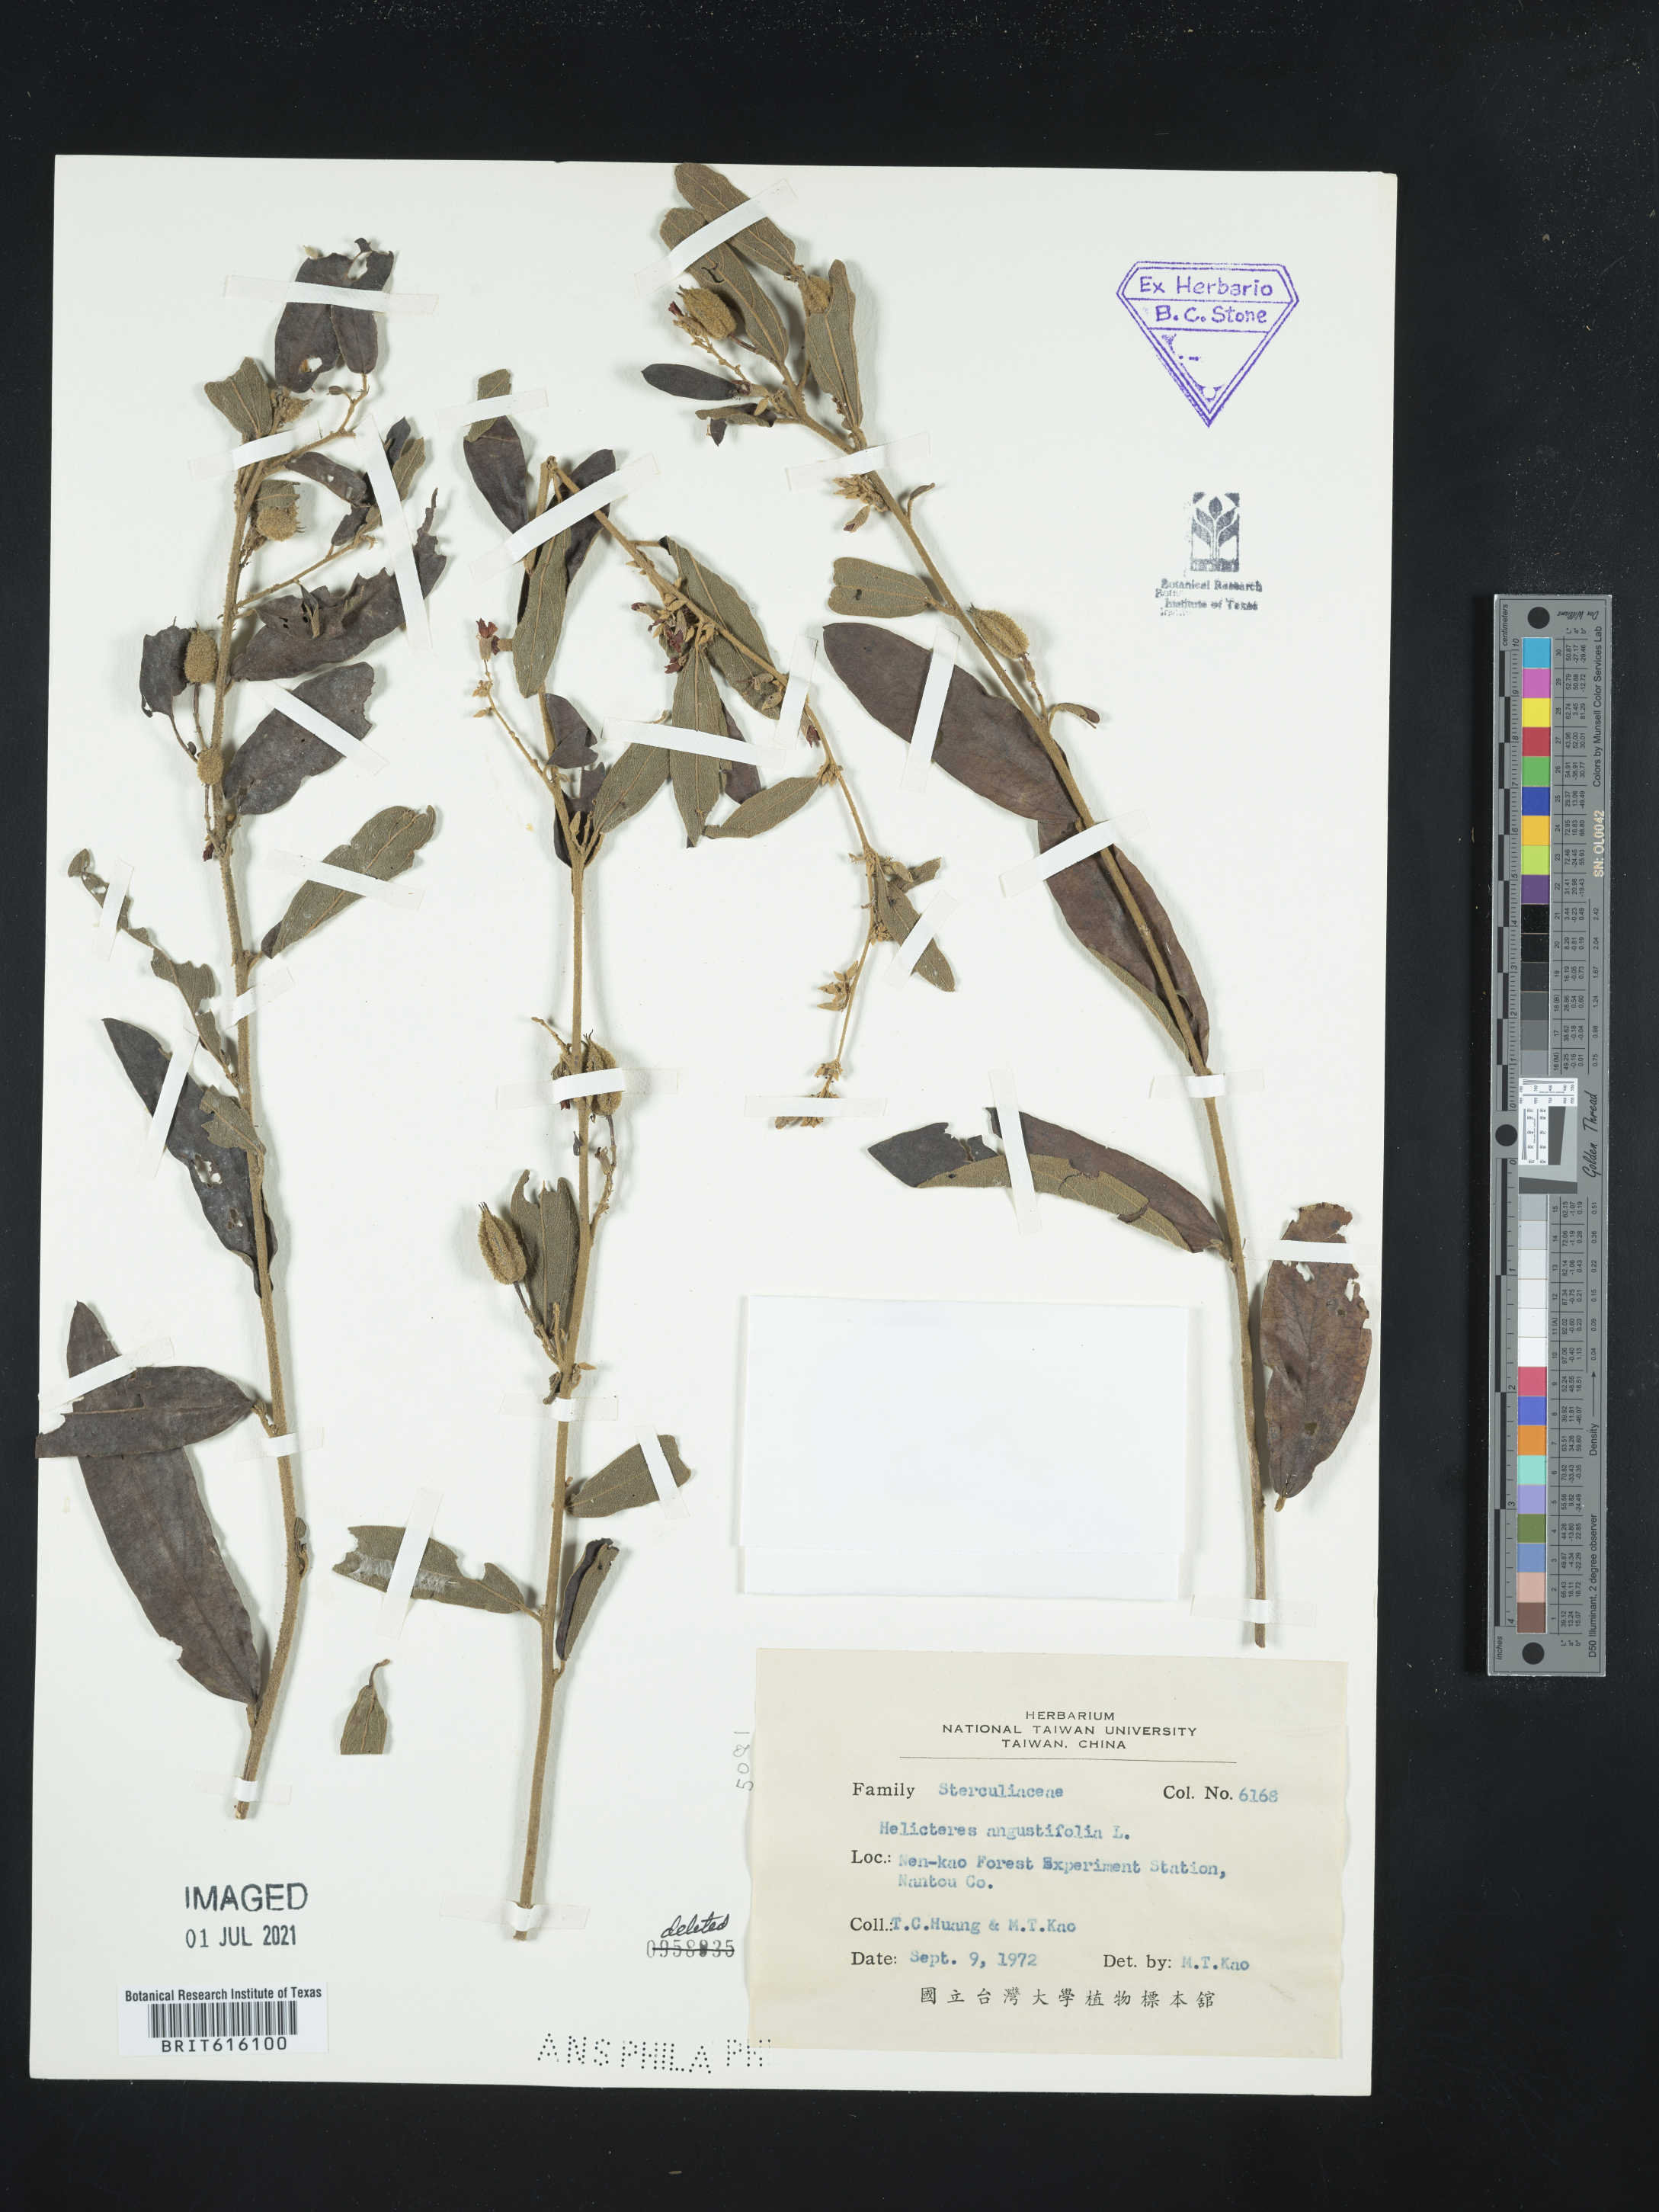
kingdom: Plantae
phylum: Tracheophyta
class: Magnoliopsida
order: Malvales
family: Malvaceae
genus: Helicteres
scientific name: Helicteres angustifolia
